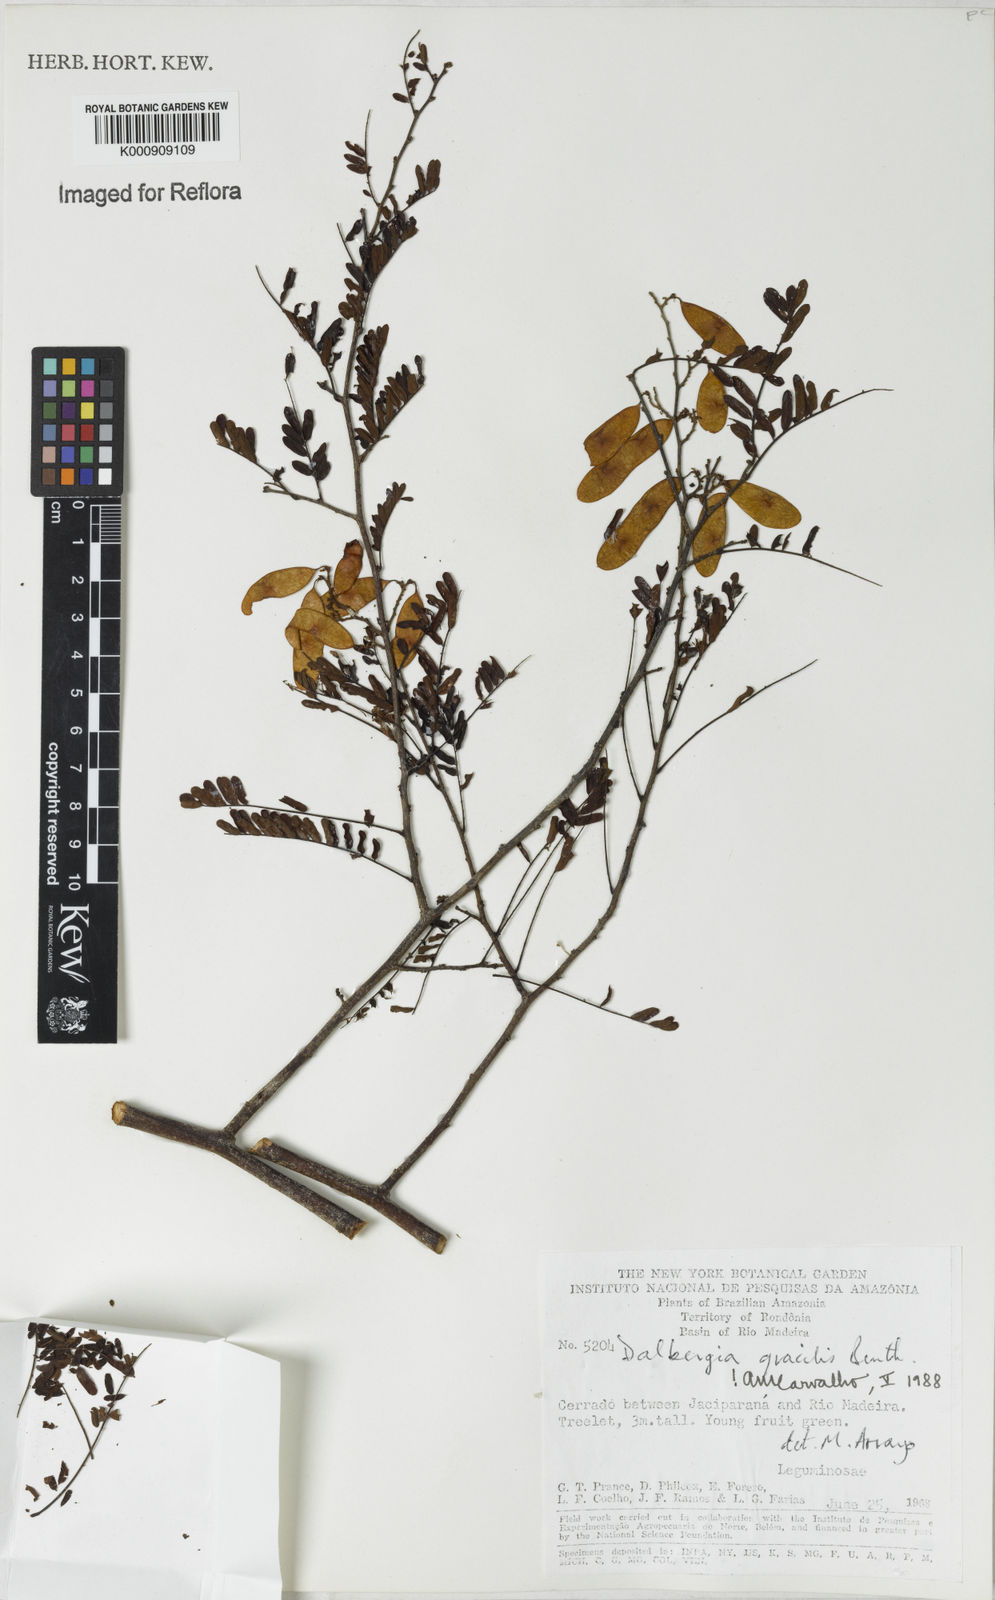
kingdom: Plantae
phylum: Tracheophyta
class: Magnoliopsida
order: Fabales
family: Fabaceae
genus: Dalbergia
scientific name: Dalbergia gracilis
